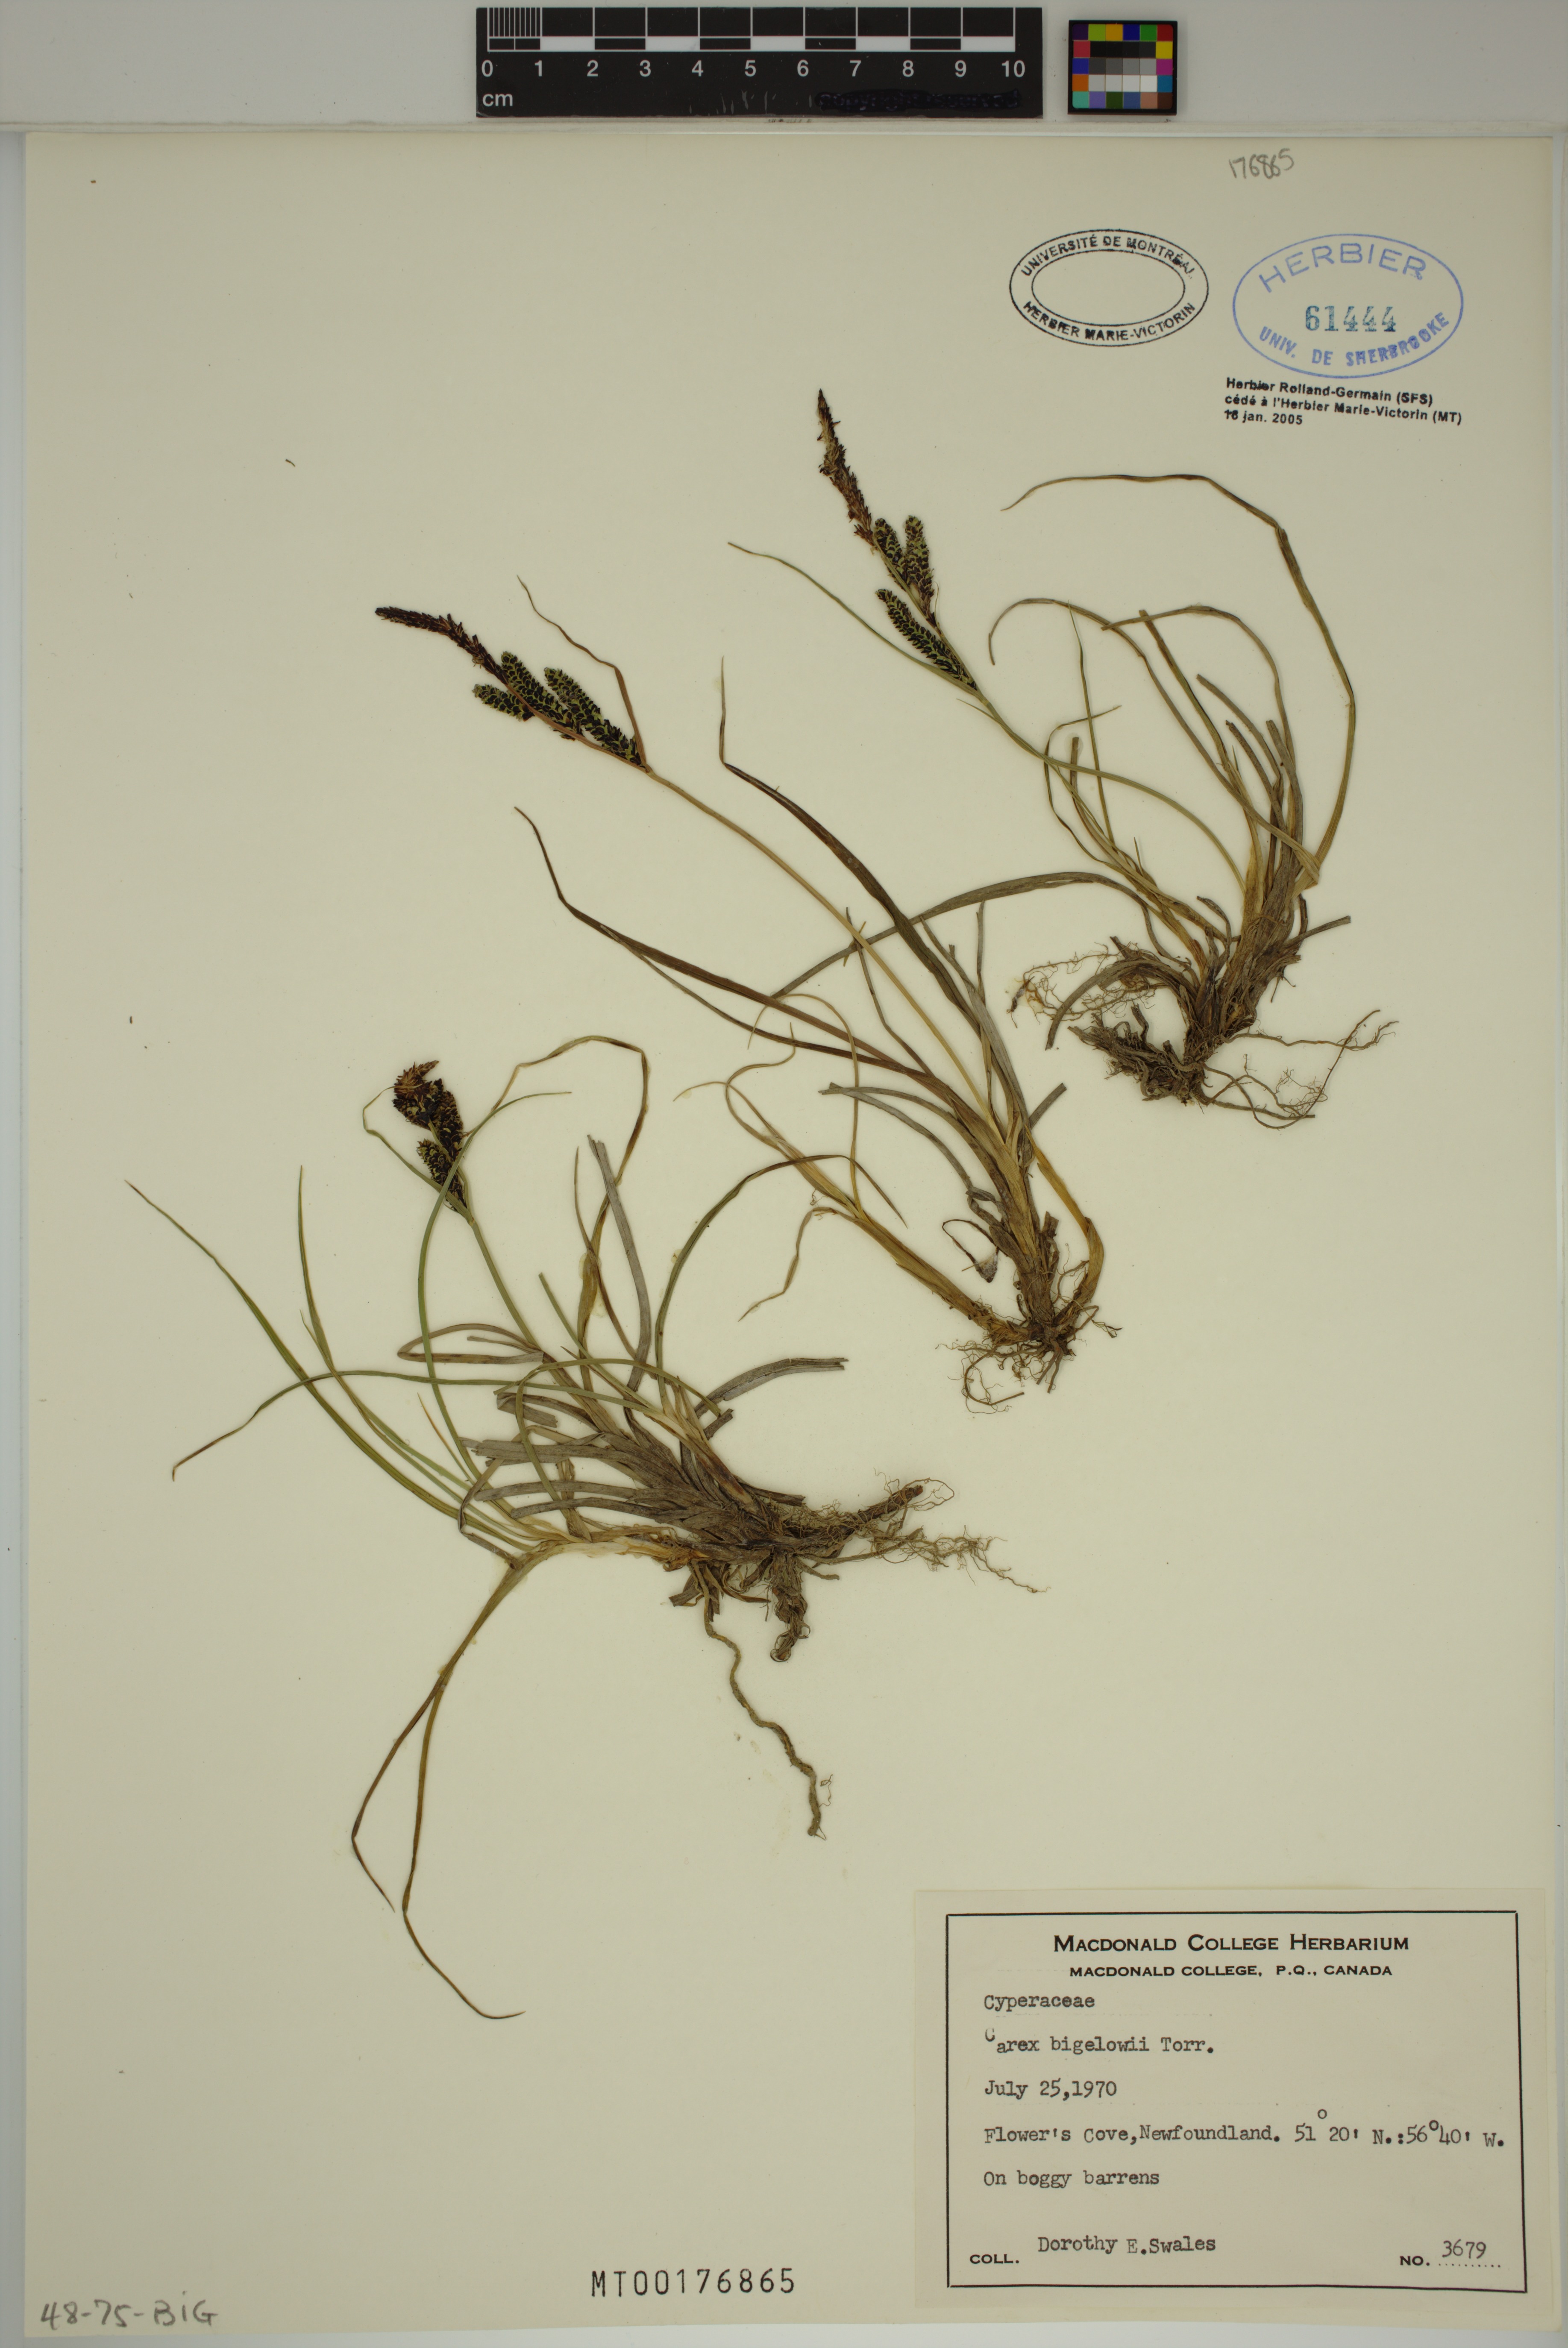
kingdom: Plantae
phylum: Tracheophyta
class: Liliopsida
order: Poales
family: Cyperaceae
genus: Carex
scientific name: Carex bigelowii
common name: Stiff sedge
